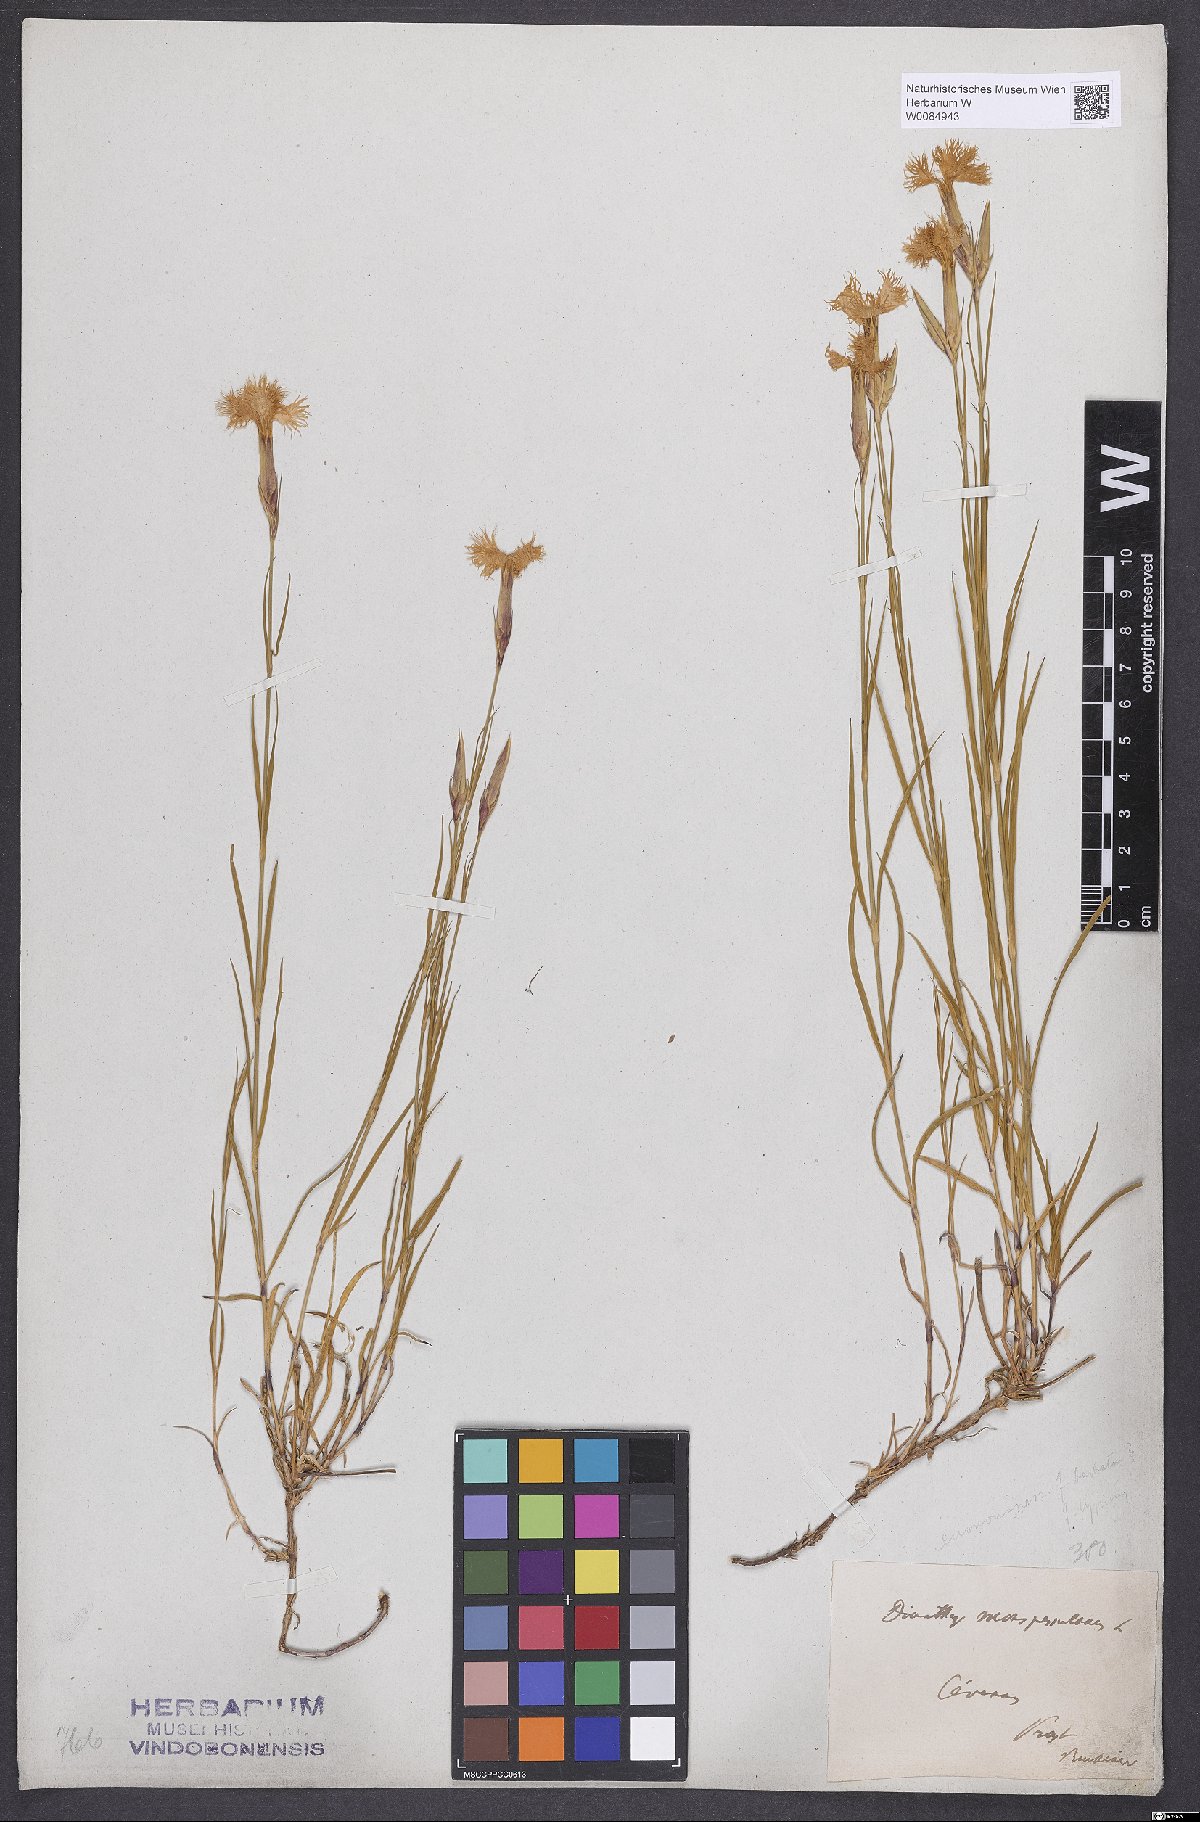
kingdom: Plantae
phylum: Tracheophyta
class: Magnoliopsida
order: Caryophyllales
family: Caryophyllaceae
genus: Dianthus
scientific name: Dianthus hyssopifolius
